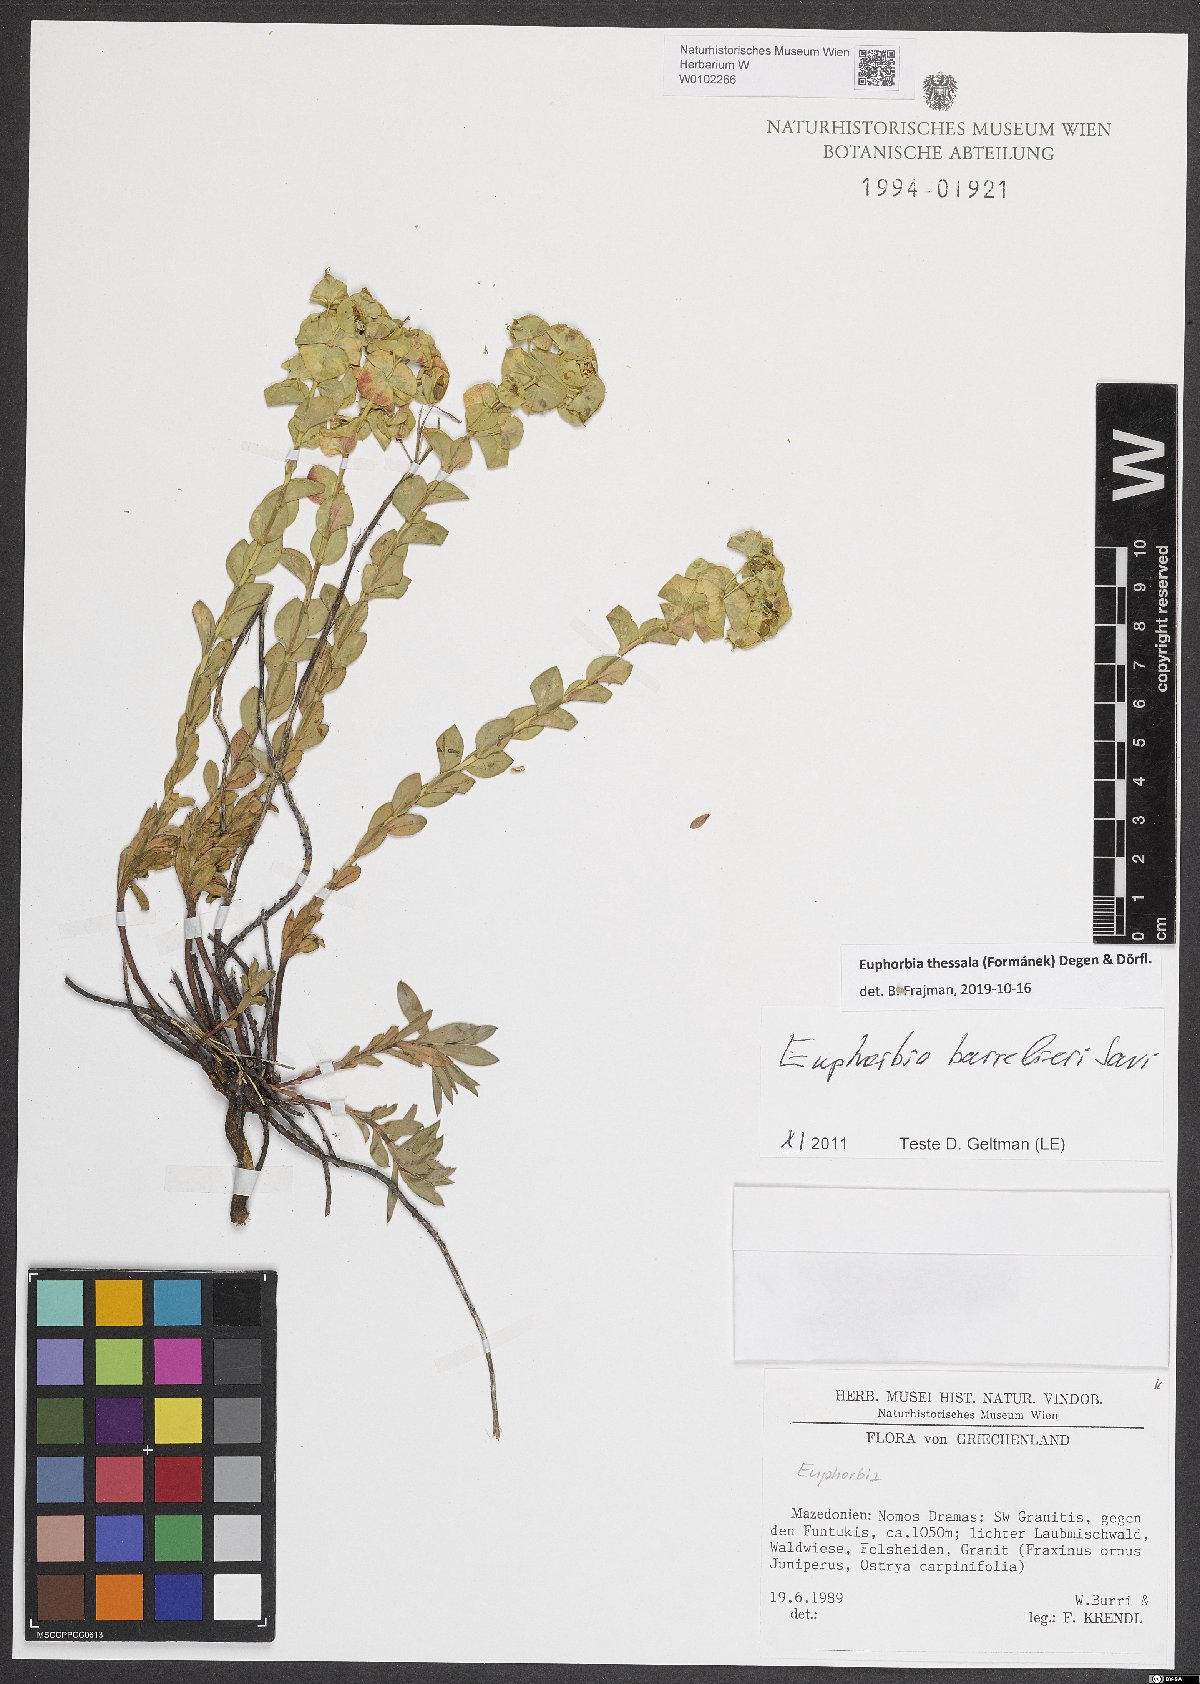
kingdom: Plantae
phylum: Tracheophyta
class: Magnoliopsida
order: Malpighiales
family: Euphorbiaceae
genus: Euphorbia
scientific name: Euphorbia barrelieri
